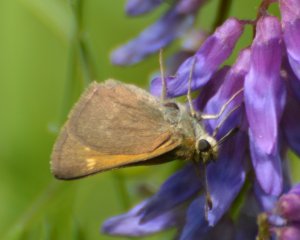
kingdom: Animalia
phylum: Arthropoda
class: Insecta
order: Lepidoptera
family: Hesperiidae
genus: Polites
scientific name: Polites themistocles
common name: Tawny-edged Skipper
